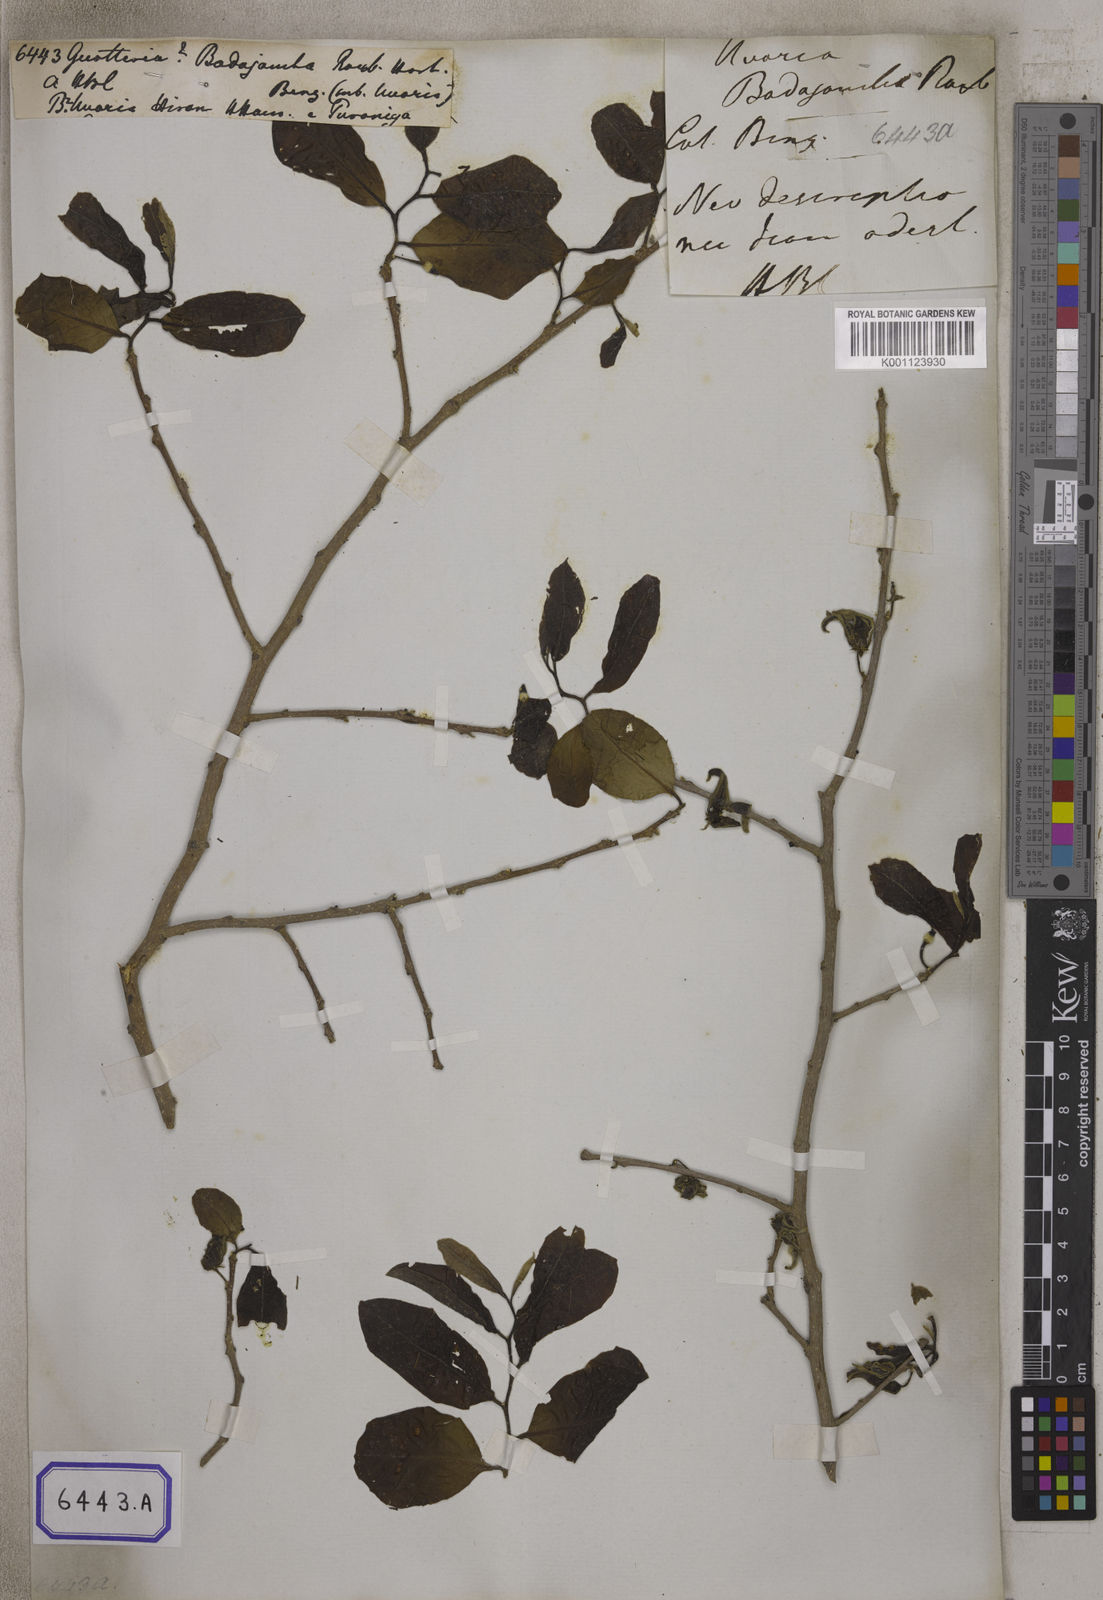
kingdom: Plantae
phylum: Tracheophyta
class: Magnoliopsida
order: Magnoliales
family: Annonaceae
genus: Guatteria
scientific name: Guatteria
